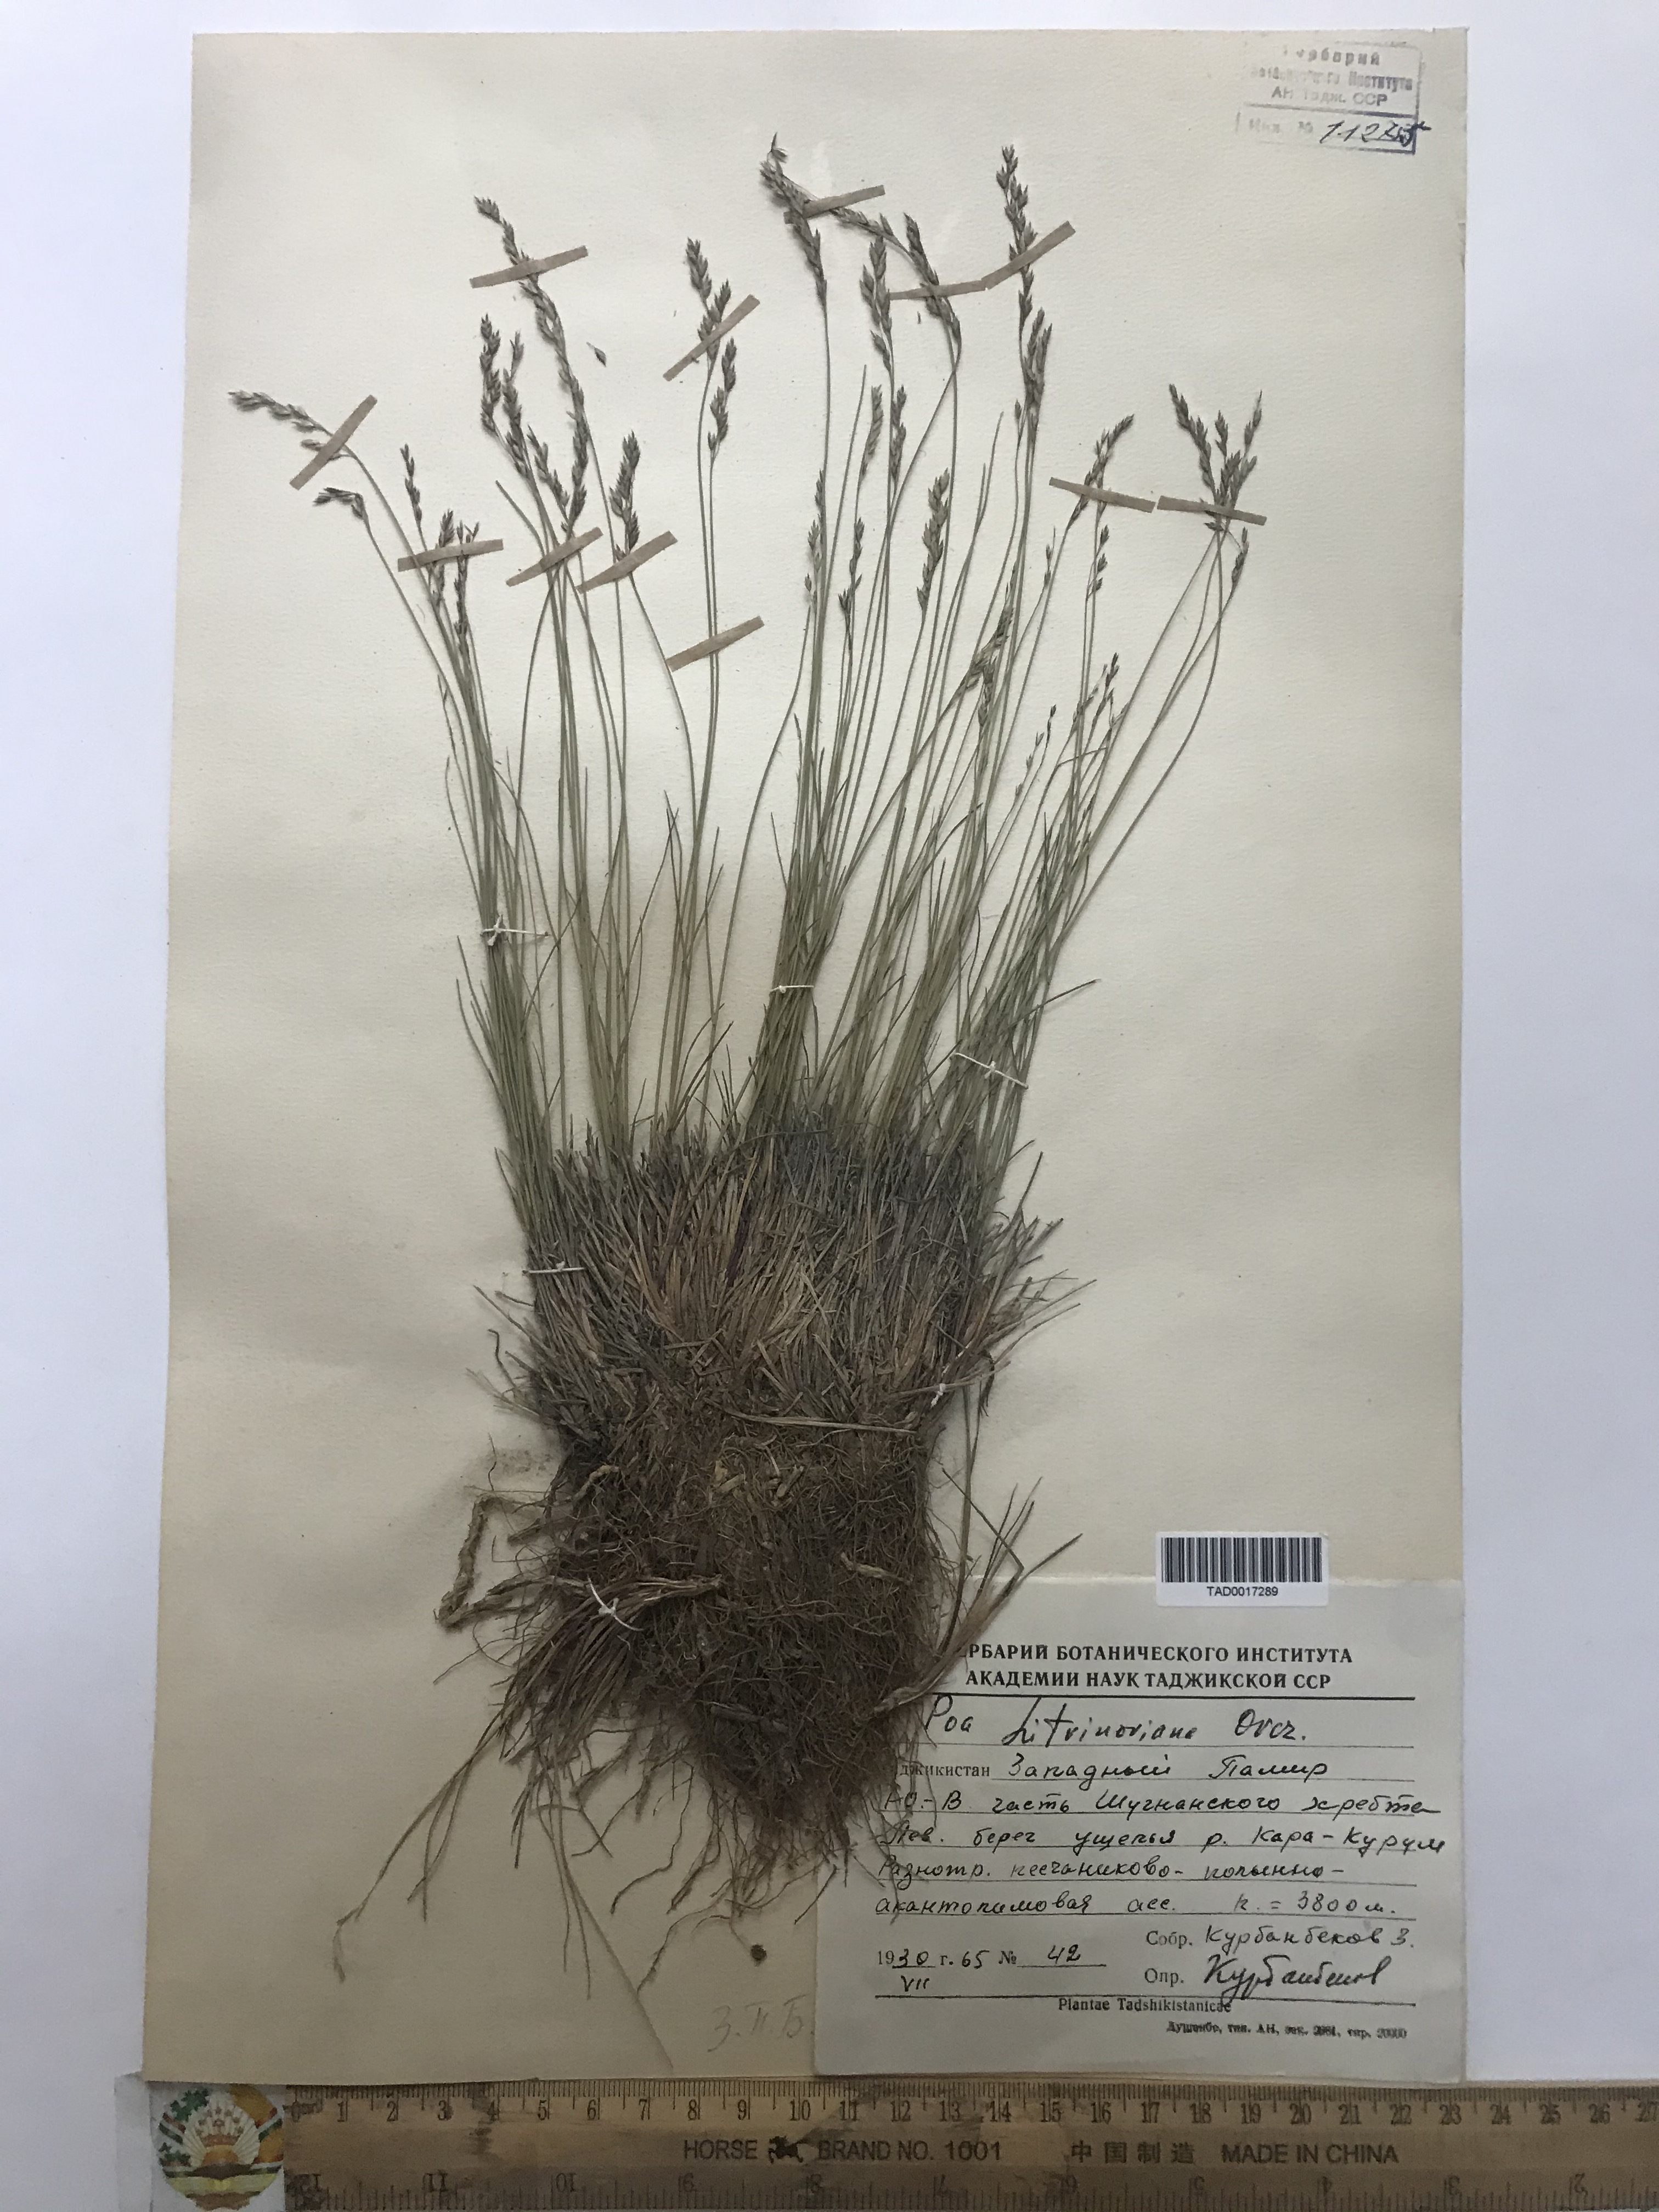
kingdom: Plantae
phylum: Tracheophyta
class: Liliopsida
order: Poales
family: Poaceae
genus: Poa
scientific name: Poa glauca
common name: Glaucous bluegrass
